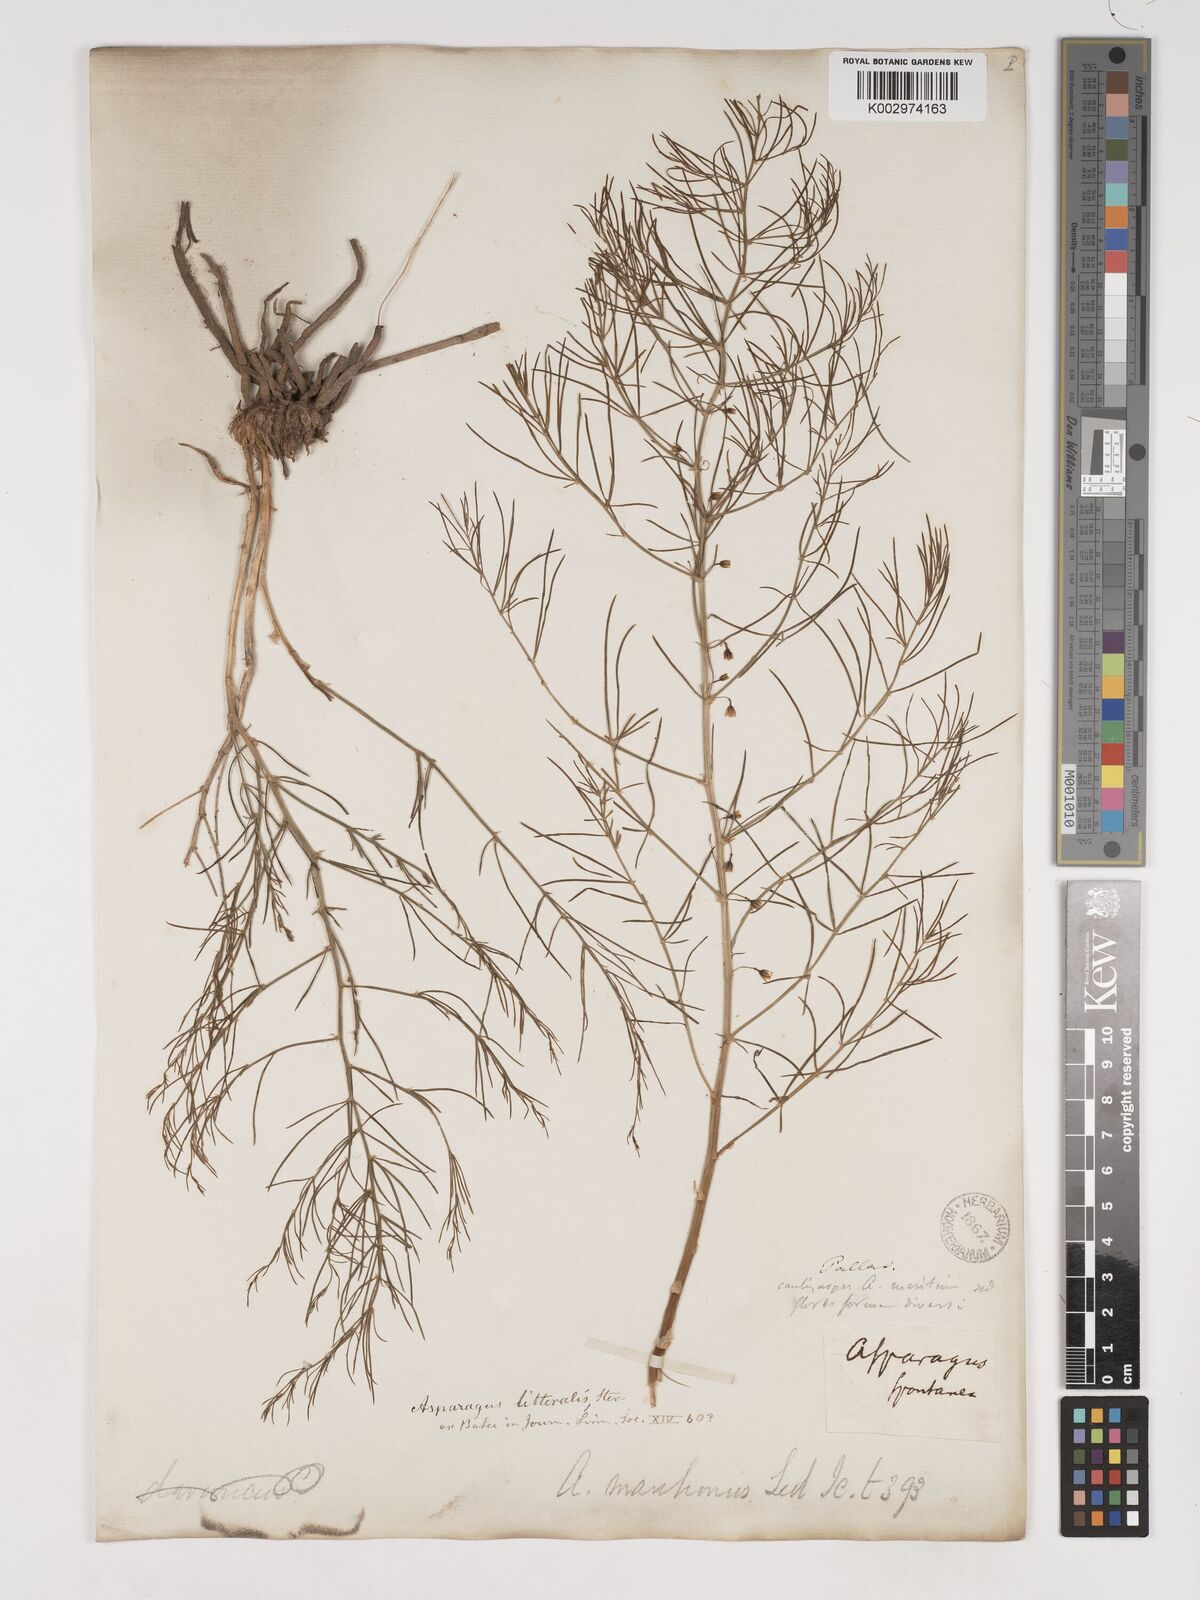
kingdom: Plantae
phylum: Tracheophyta
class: Liliopsida
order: Asparagales
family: Asparagaceae
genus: Asparagus
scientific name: Asparagus
